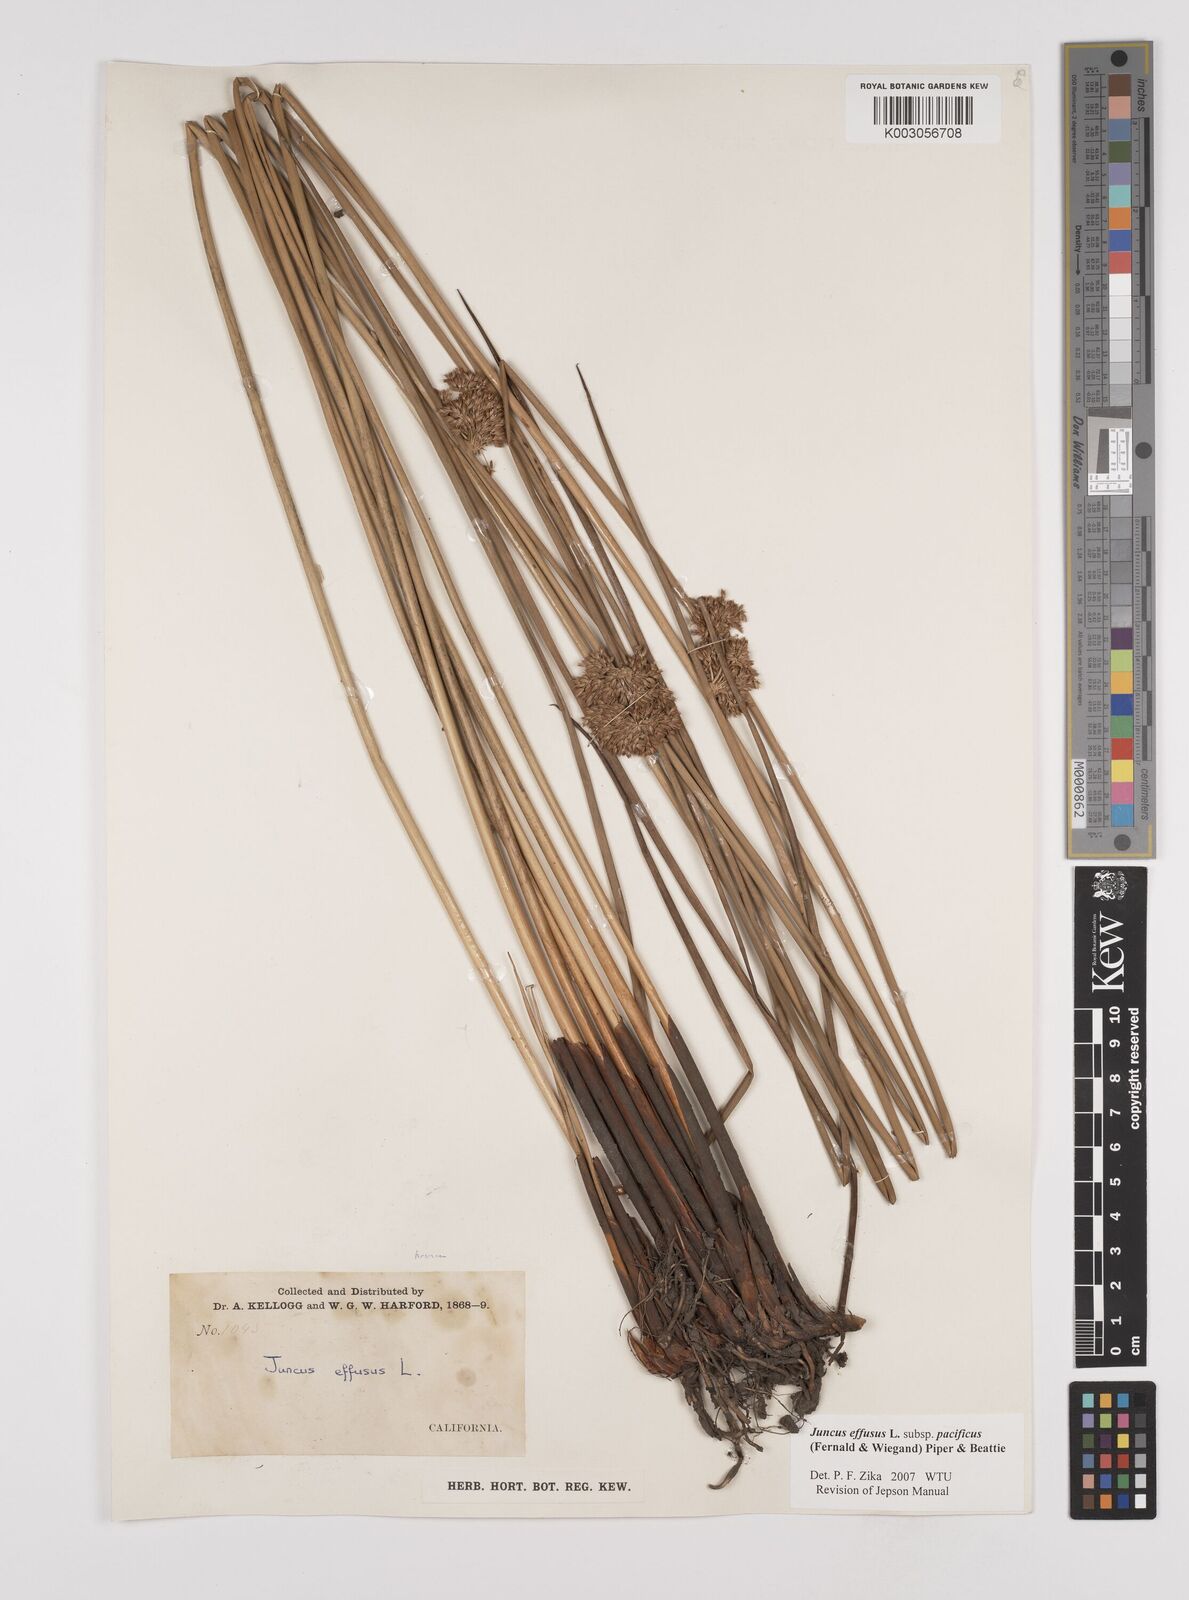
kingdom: Plantae
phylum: Tracheophyta
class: Liliopsida
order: Poales
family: Juncaceae
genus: Juncus
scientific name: Juncus effusus
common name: Soft rush
